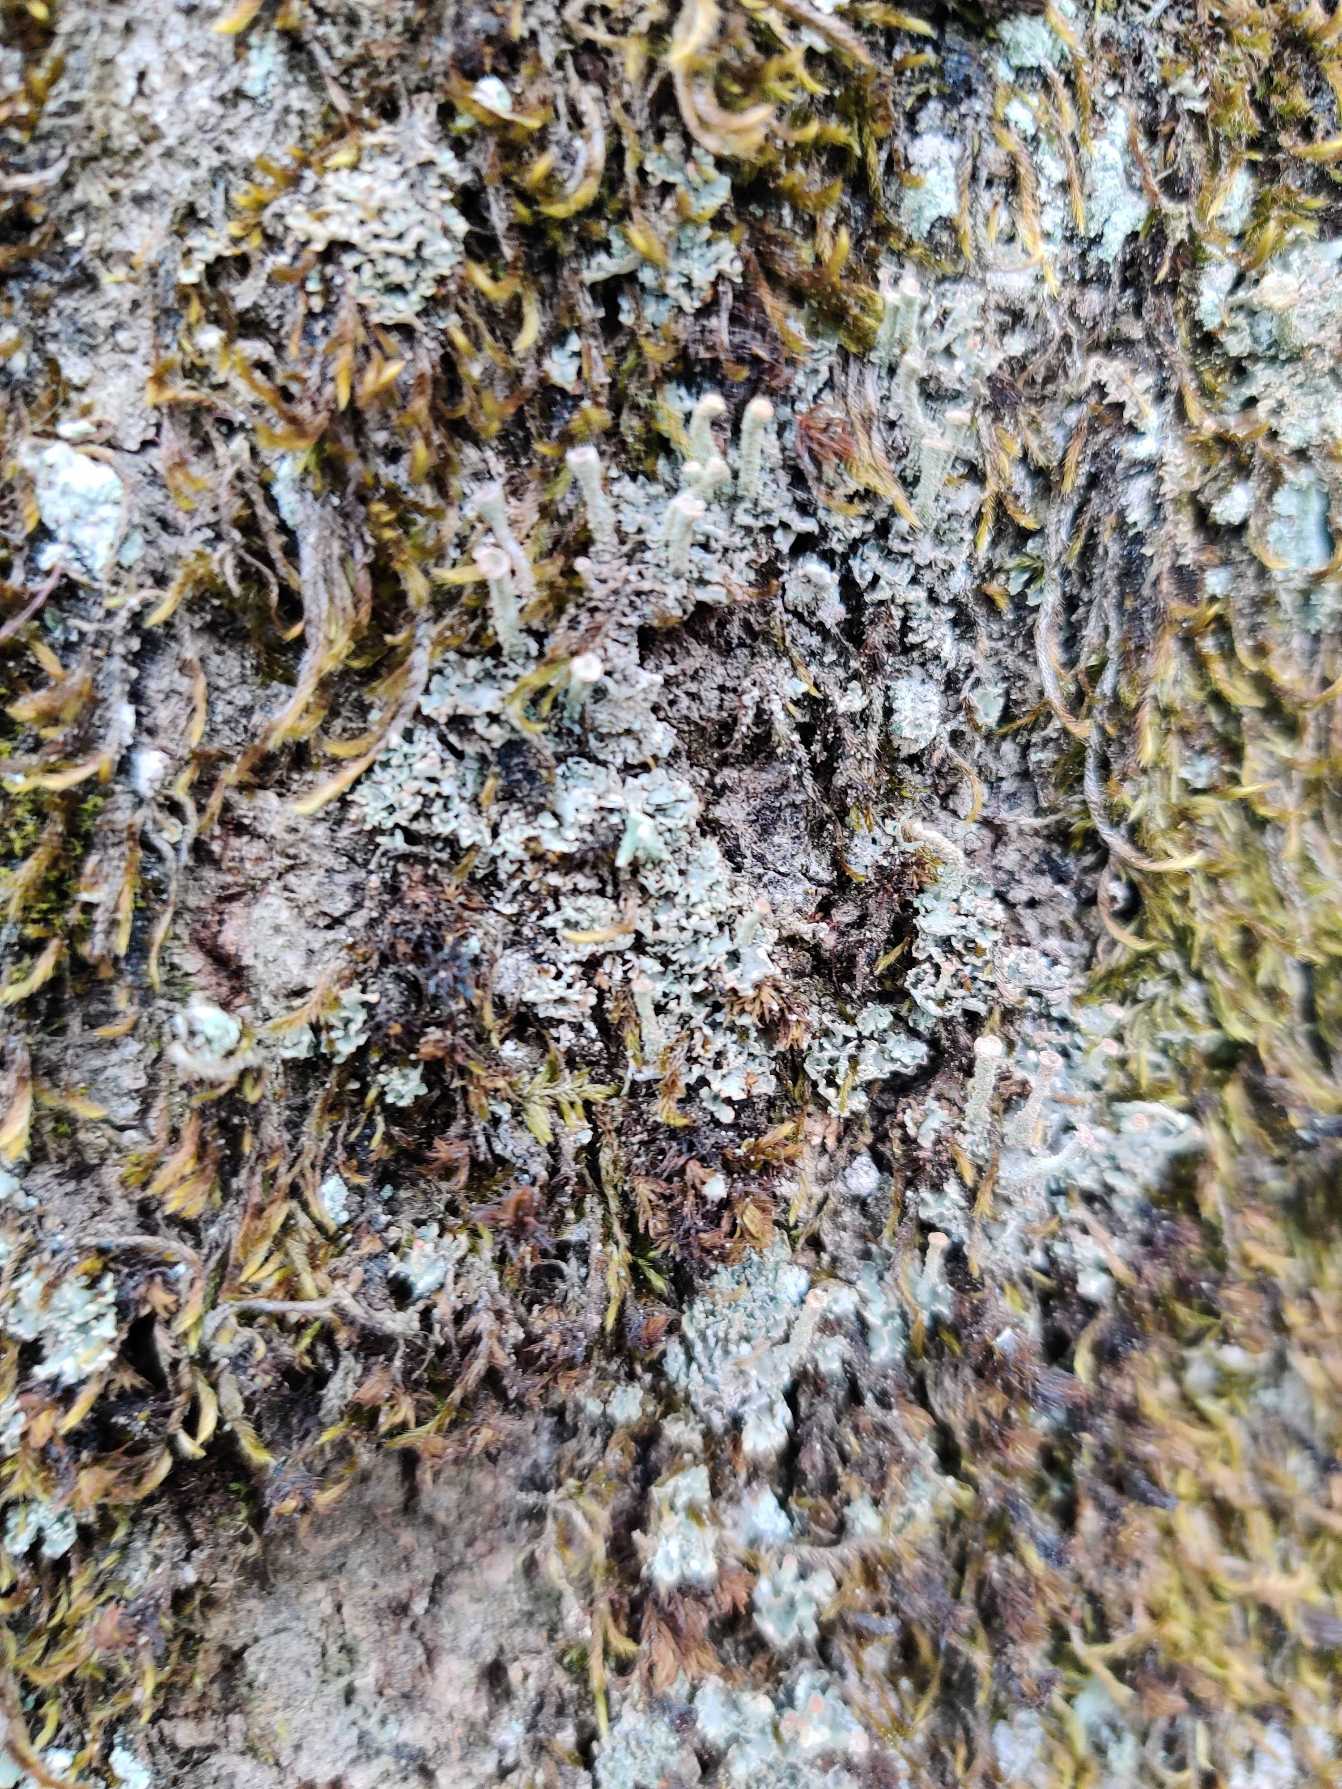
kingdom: Fungi
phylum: Ascomycota
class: Lecanoromycetes
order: Lecanorales
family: Cladoniaceae
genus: Cladonia
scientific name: Cladonia
